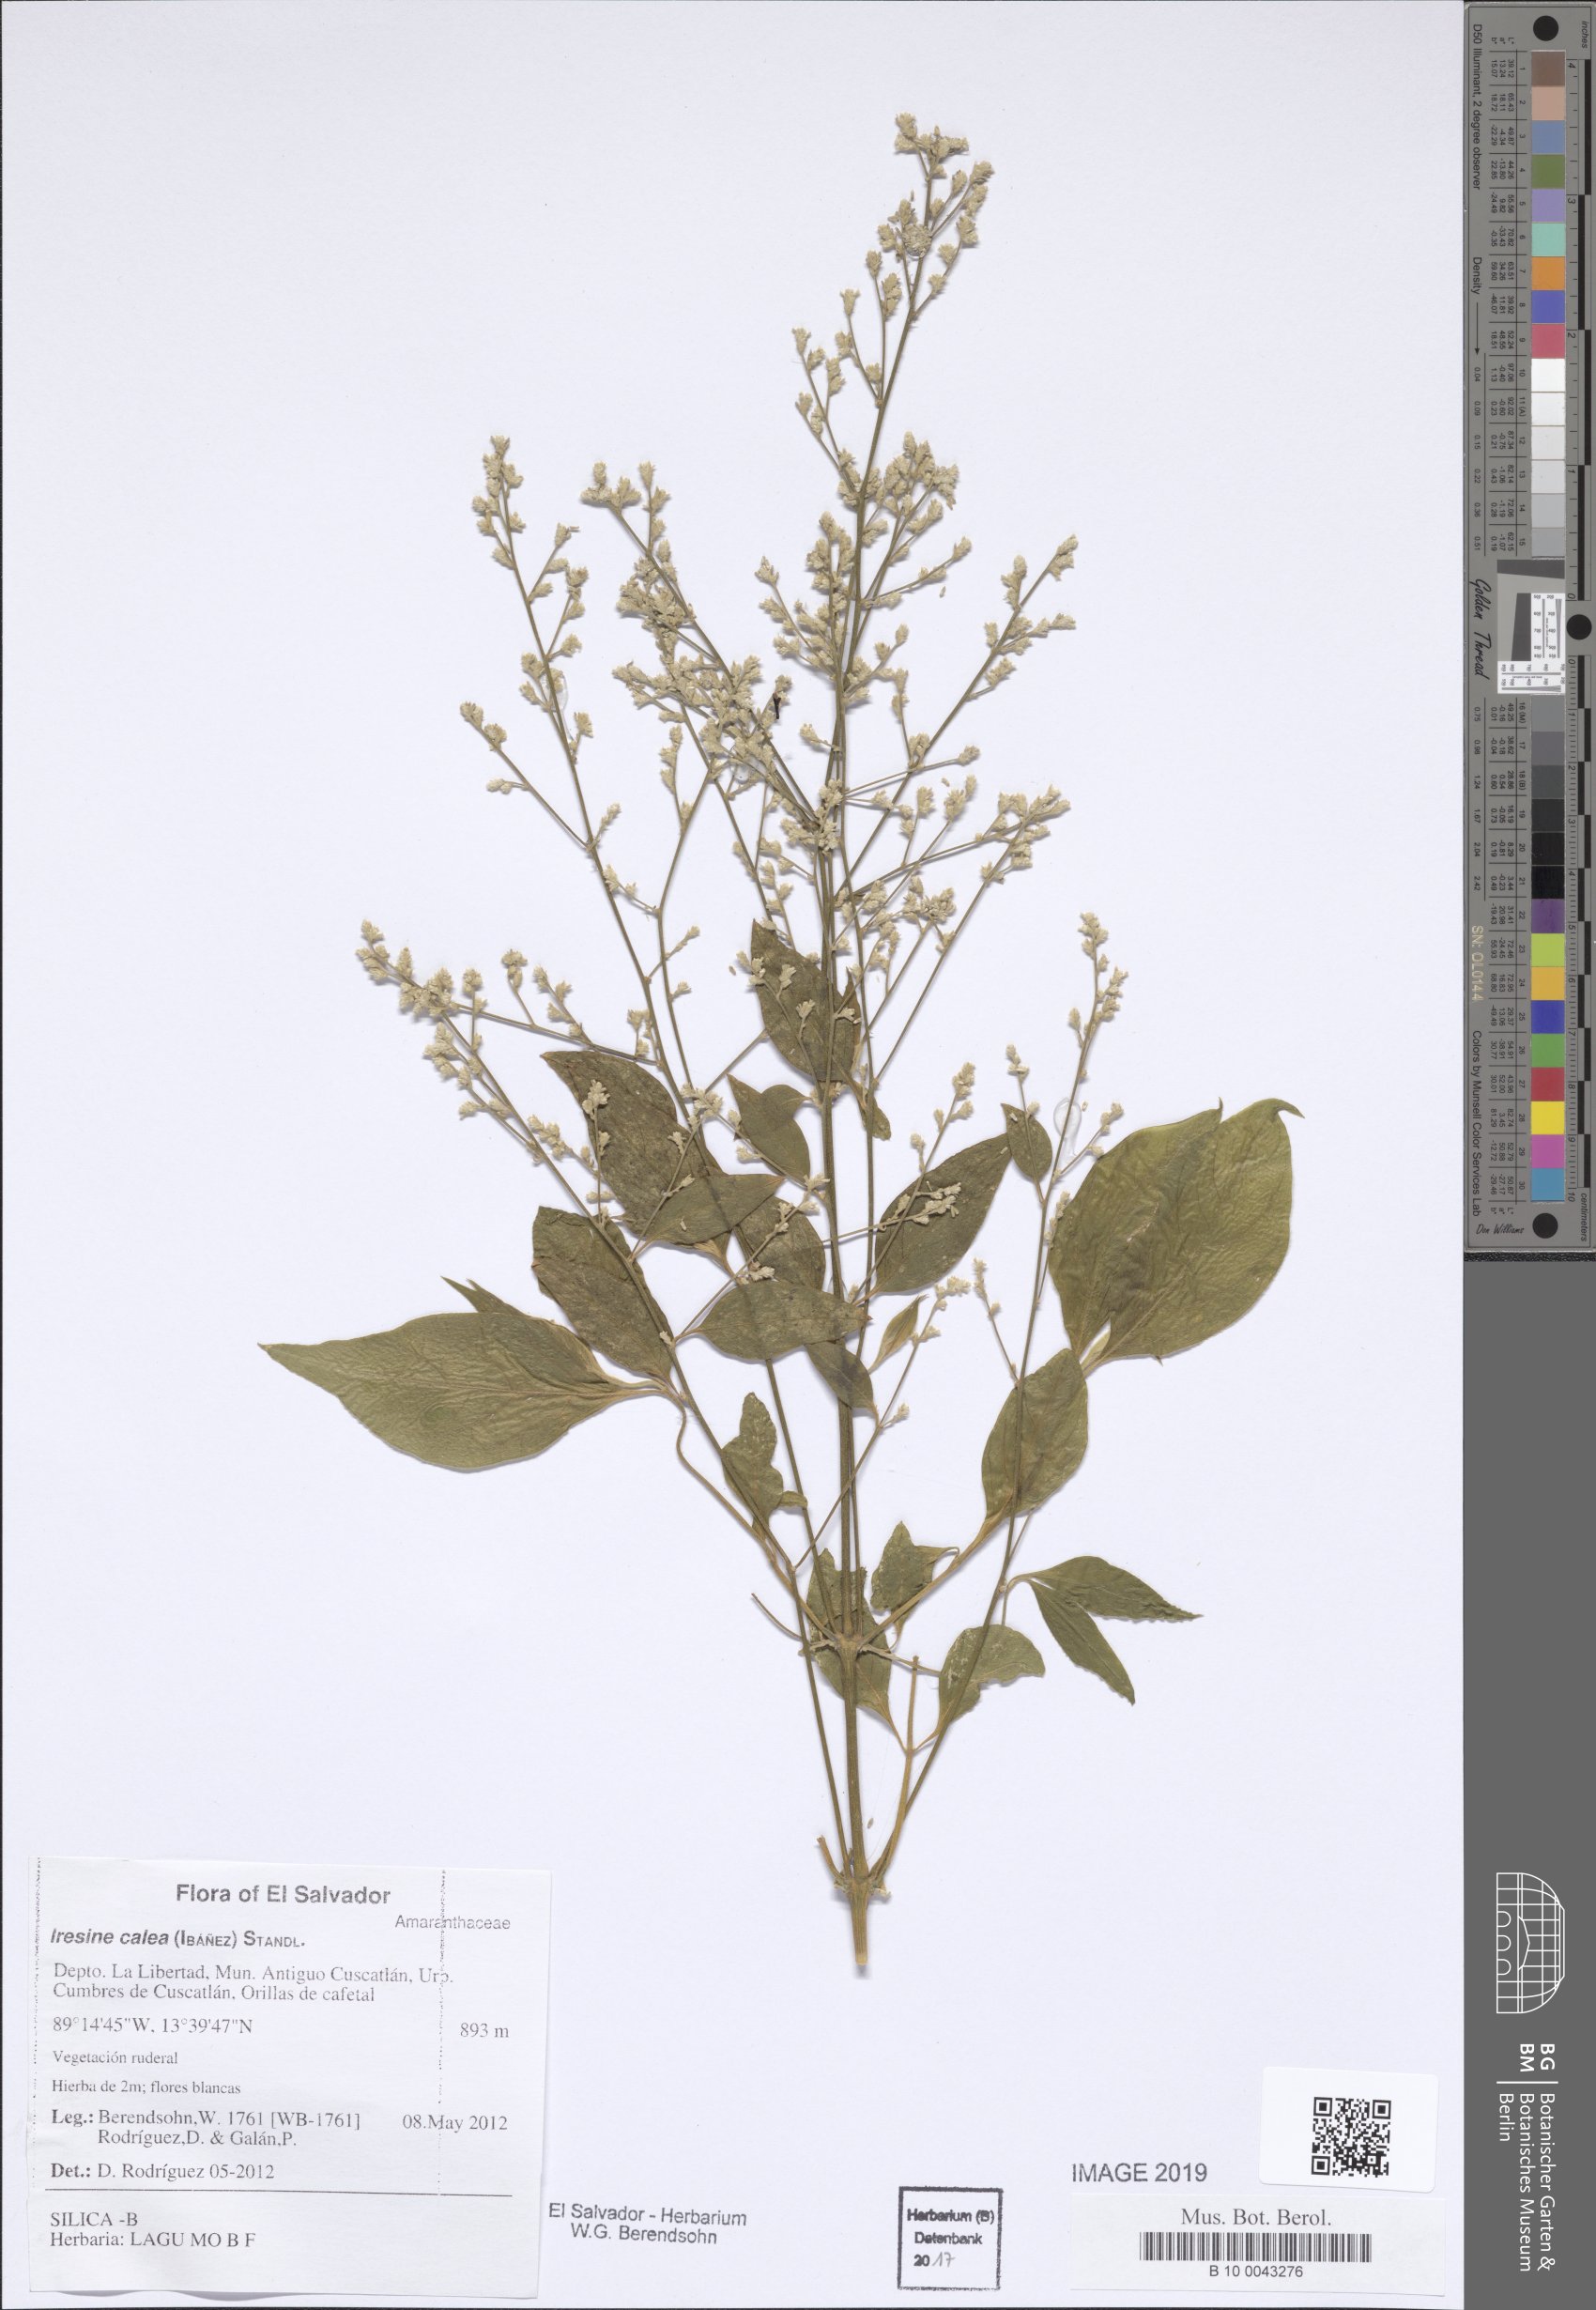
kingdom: Plantae
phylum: Tracheophyta
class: Magnoliopsida
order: Caryophyllales
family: Amaranthaceae
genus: Iresine
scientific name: Iresine latifolia
